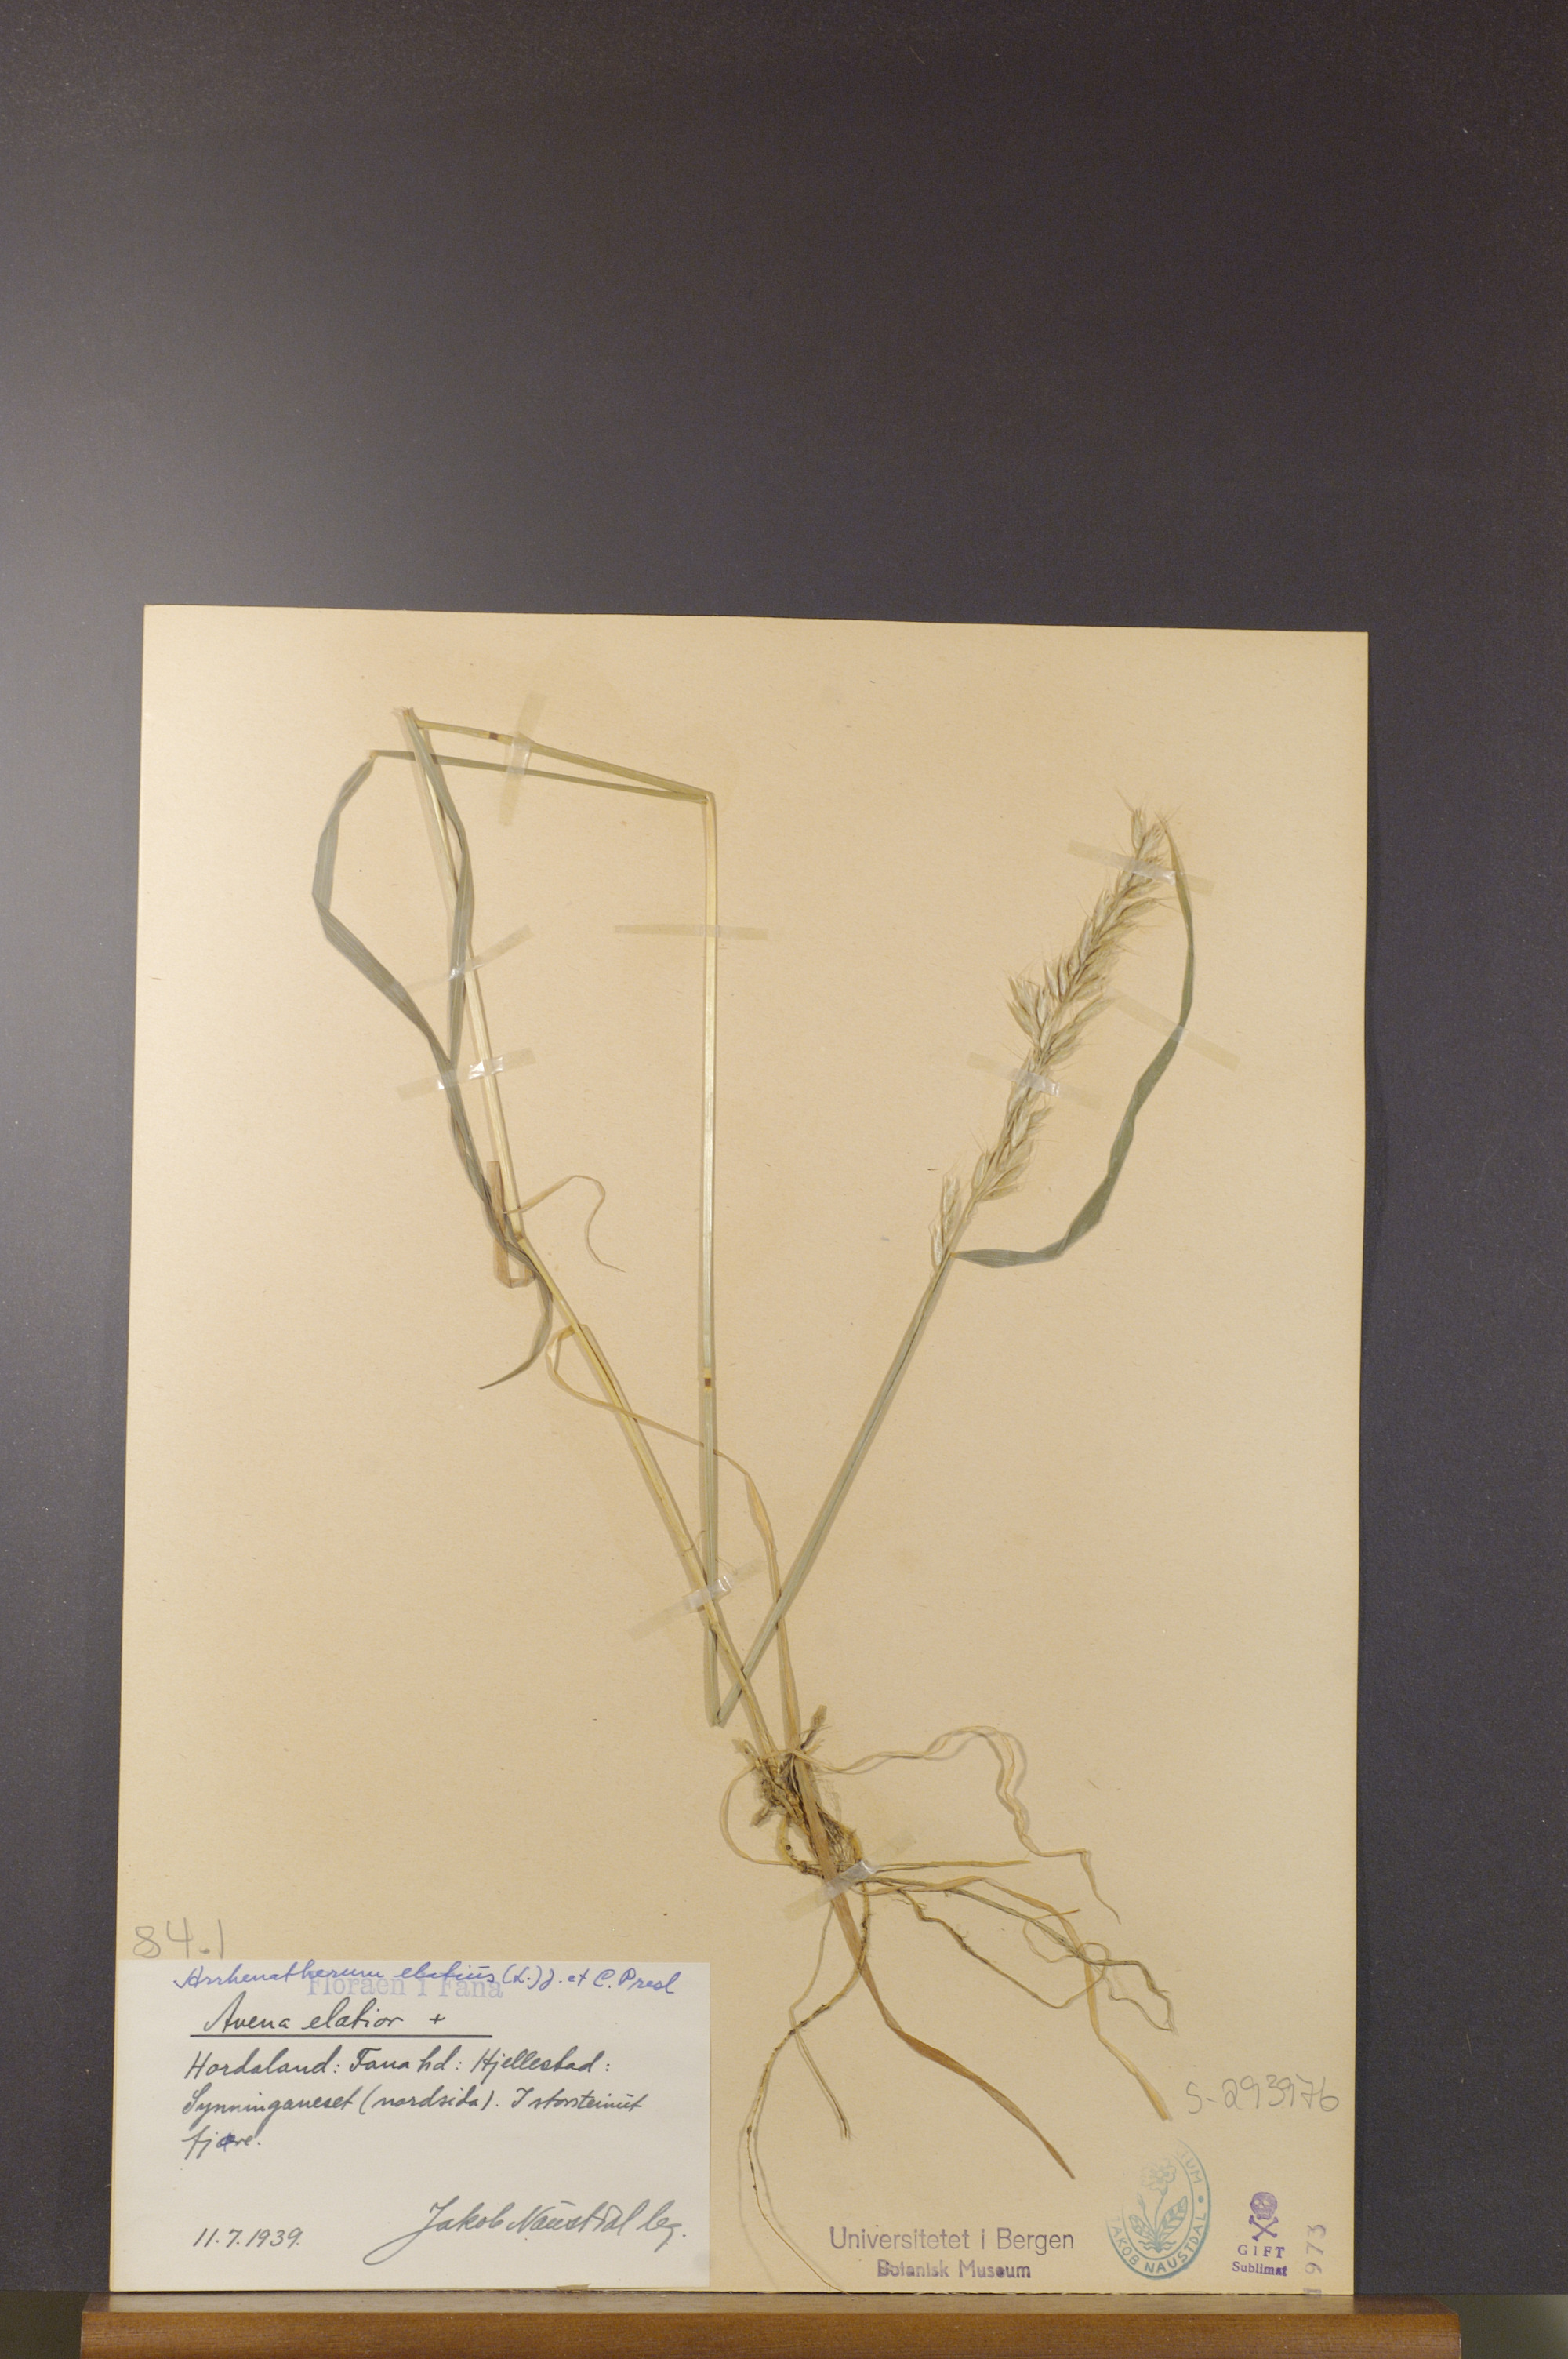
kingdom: Plantae
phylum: Tracheophyta
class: Liliopsida
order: Poales
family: Poaceae
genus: Arrhenatherum
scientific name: Arrhenatherum elatius
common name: Tall oatgrass
